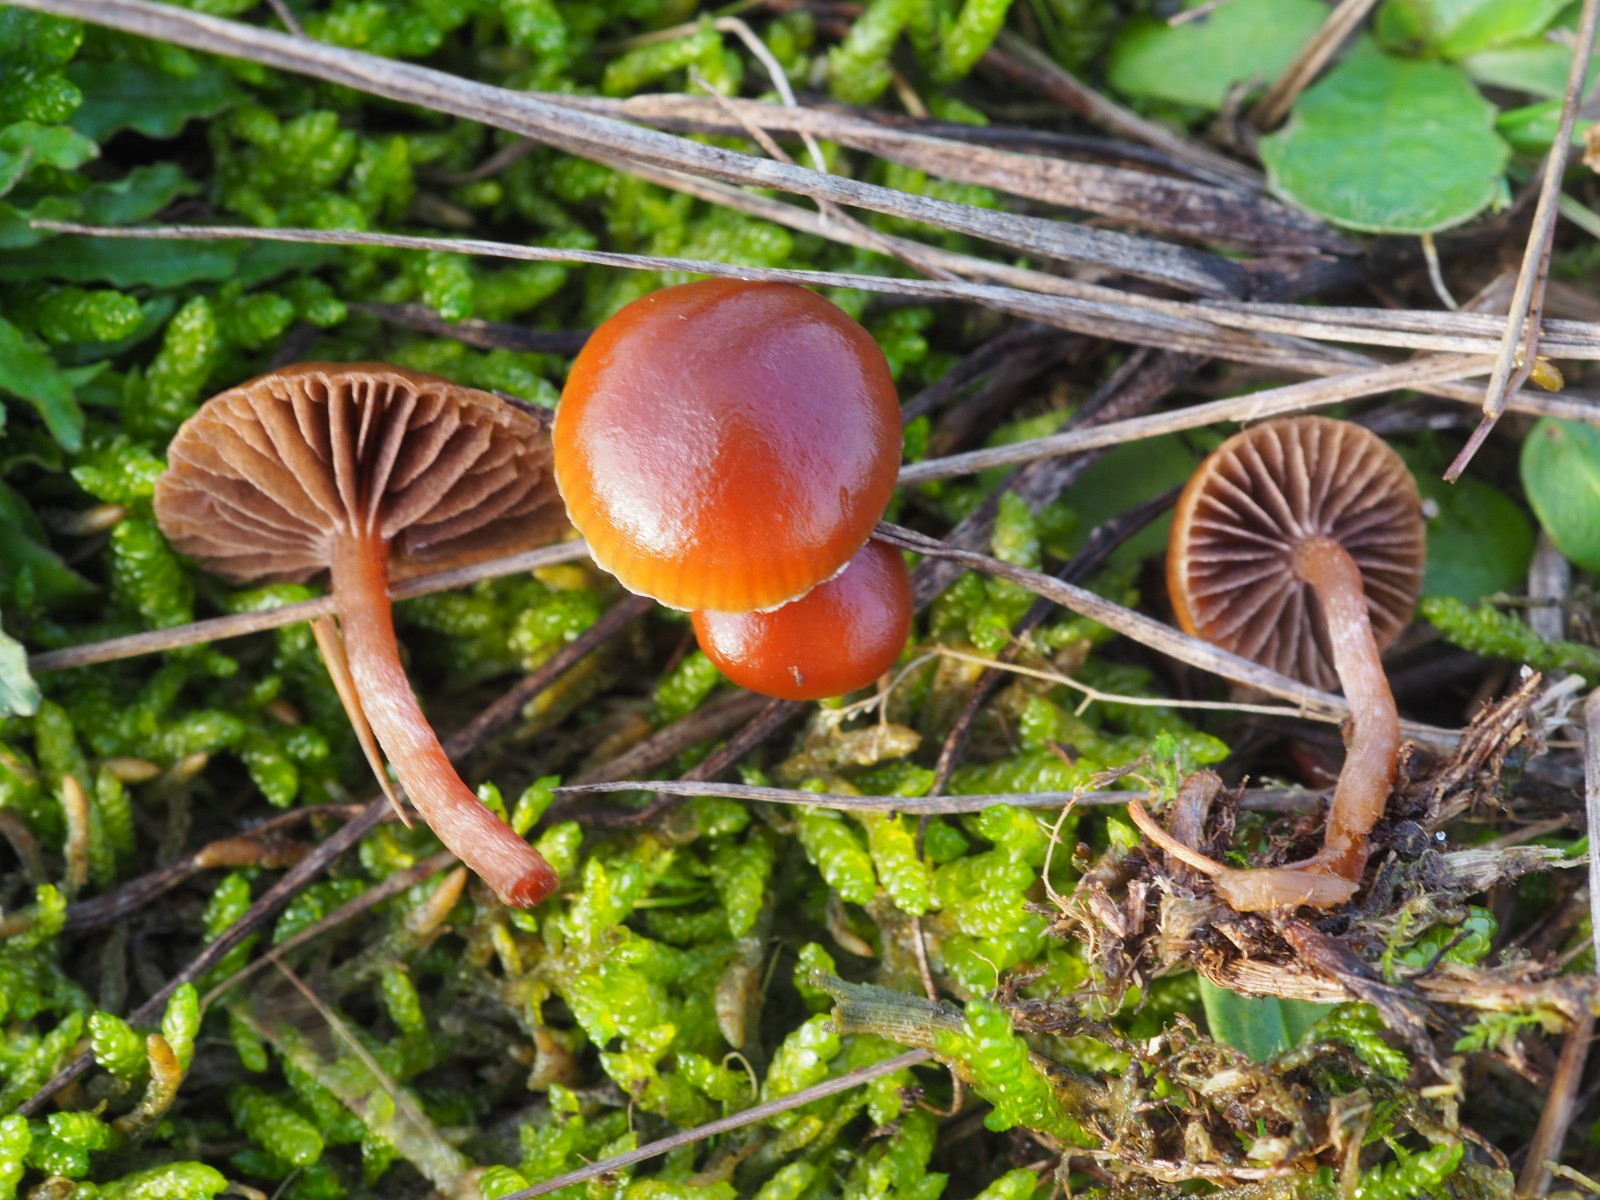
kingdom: Fungi
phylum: Basidiomycota
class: Agaricomycetes
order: Agaricales
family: Strophariaceae
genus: Deconica
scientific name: Deconica montana
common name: rødbrun stråhat
